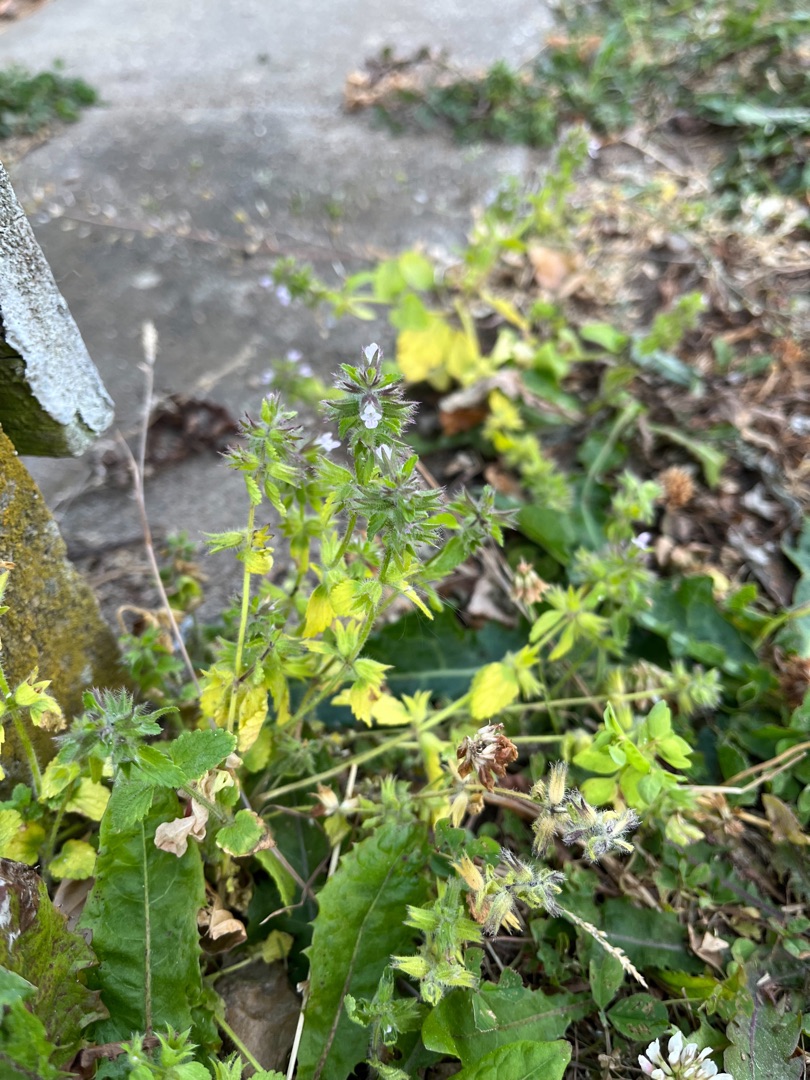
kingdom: Plantae
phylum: Tracheophyta
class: Magnoliopsida
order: Lamiales
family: Lamiaceae
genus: Stachys
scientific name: Stachys arvensis
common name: Ager-galtetand
